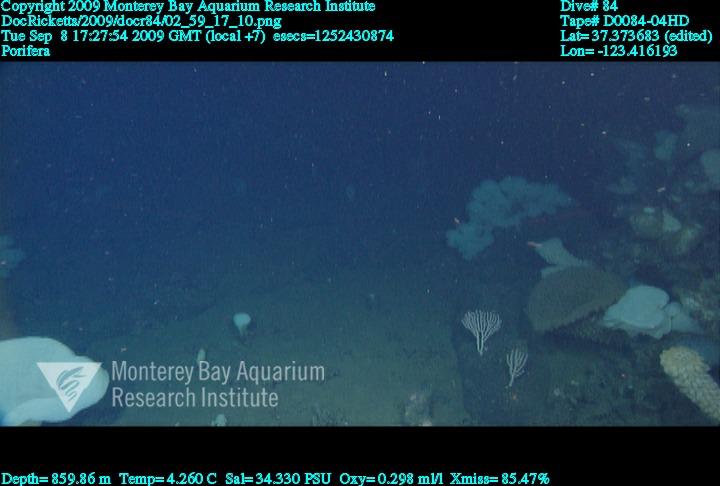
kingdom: Animalia
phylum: Porifera
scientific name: Porifera
